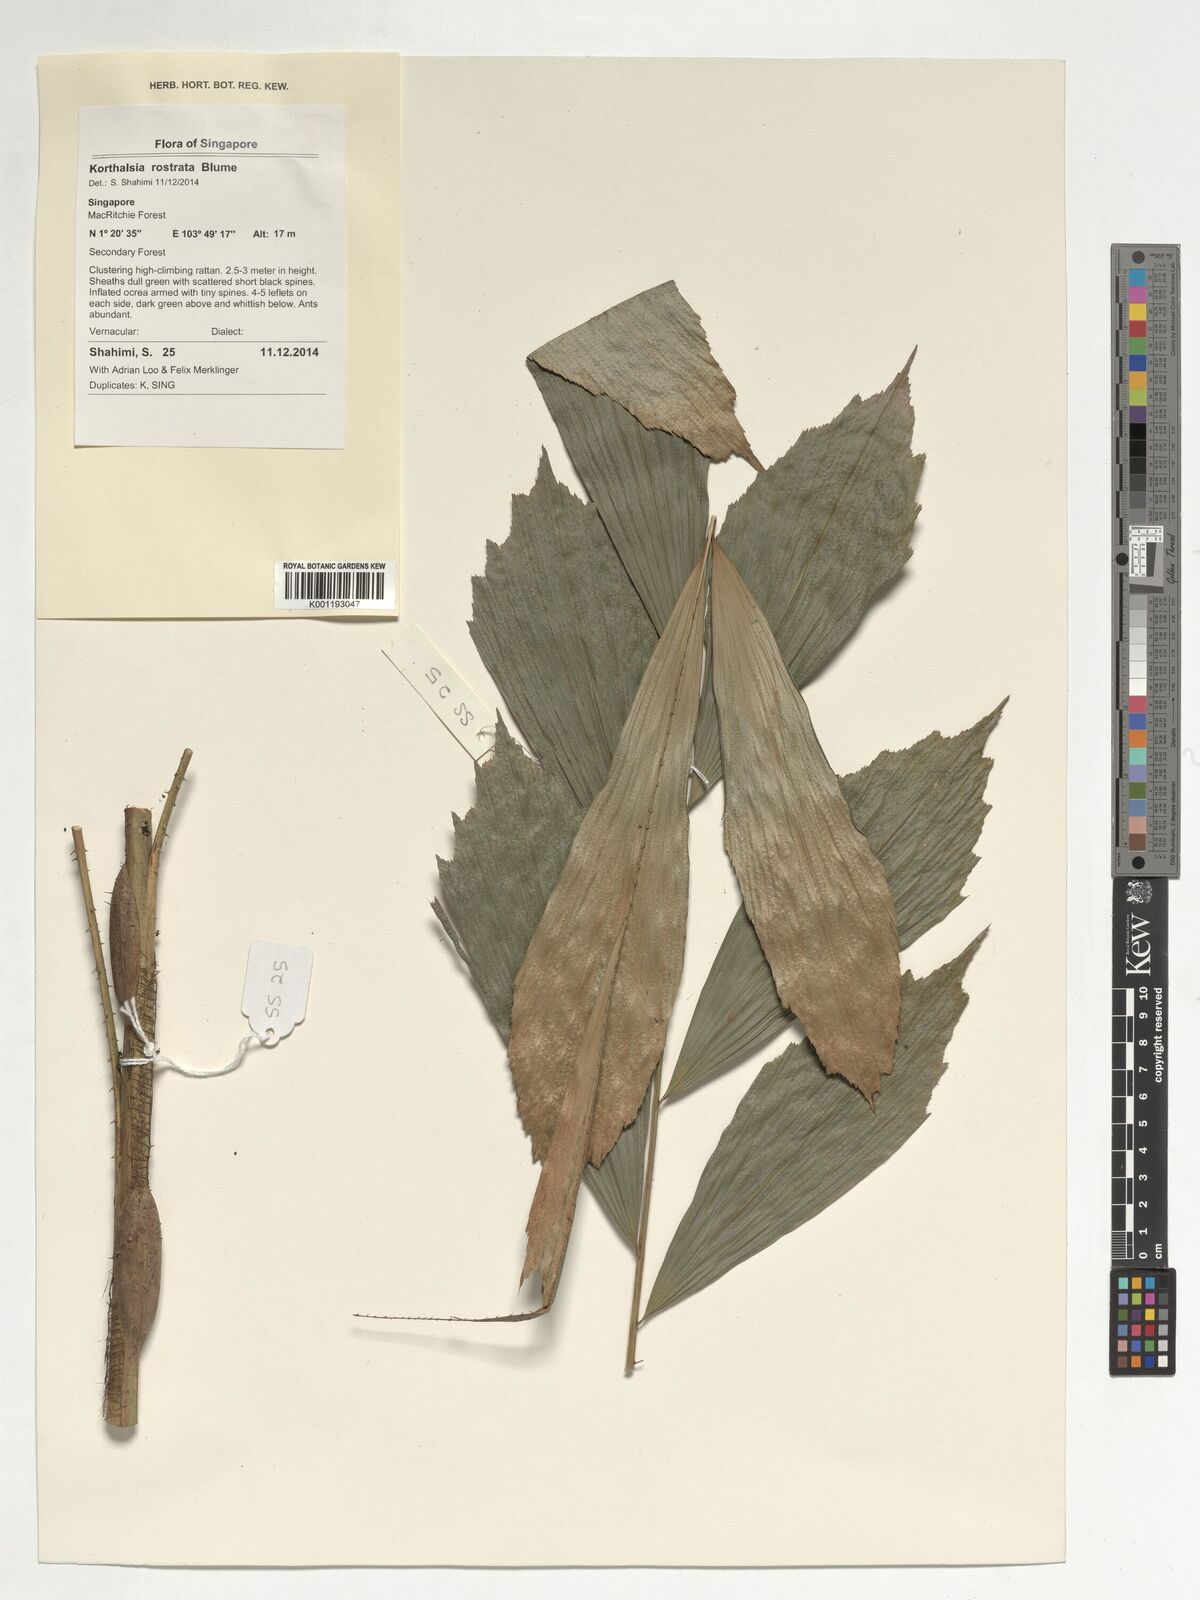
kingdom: Plantae
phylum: Tracheophyta
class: Liliopsida
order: Arecales
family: Arecaceae
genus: Korthalsia
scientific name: Korthalsia rostrata
